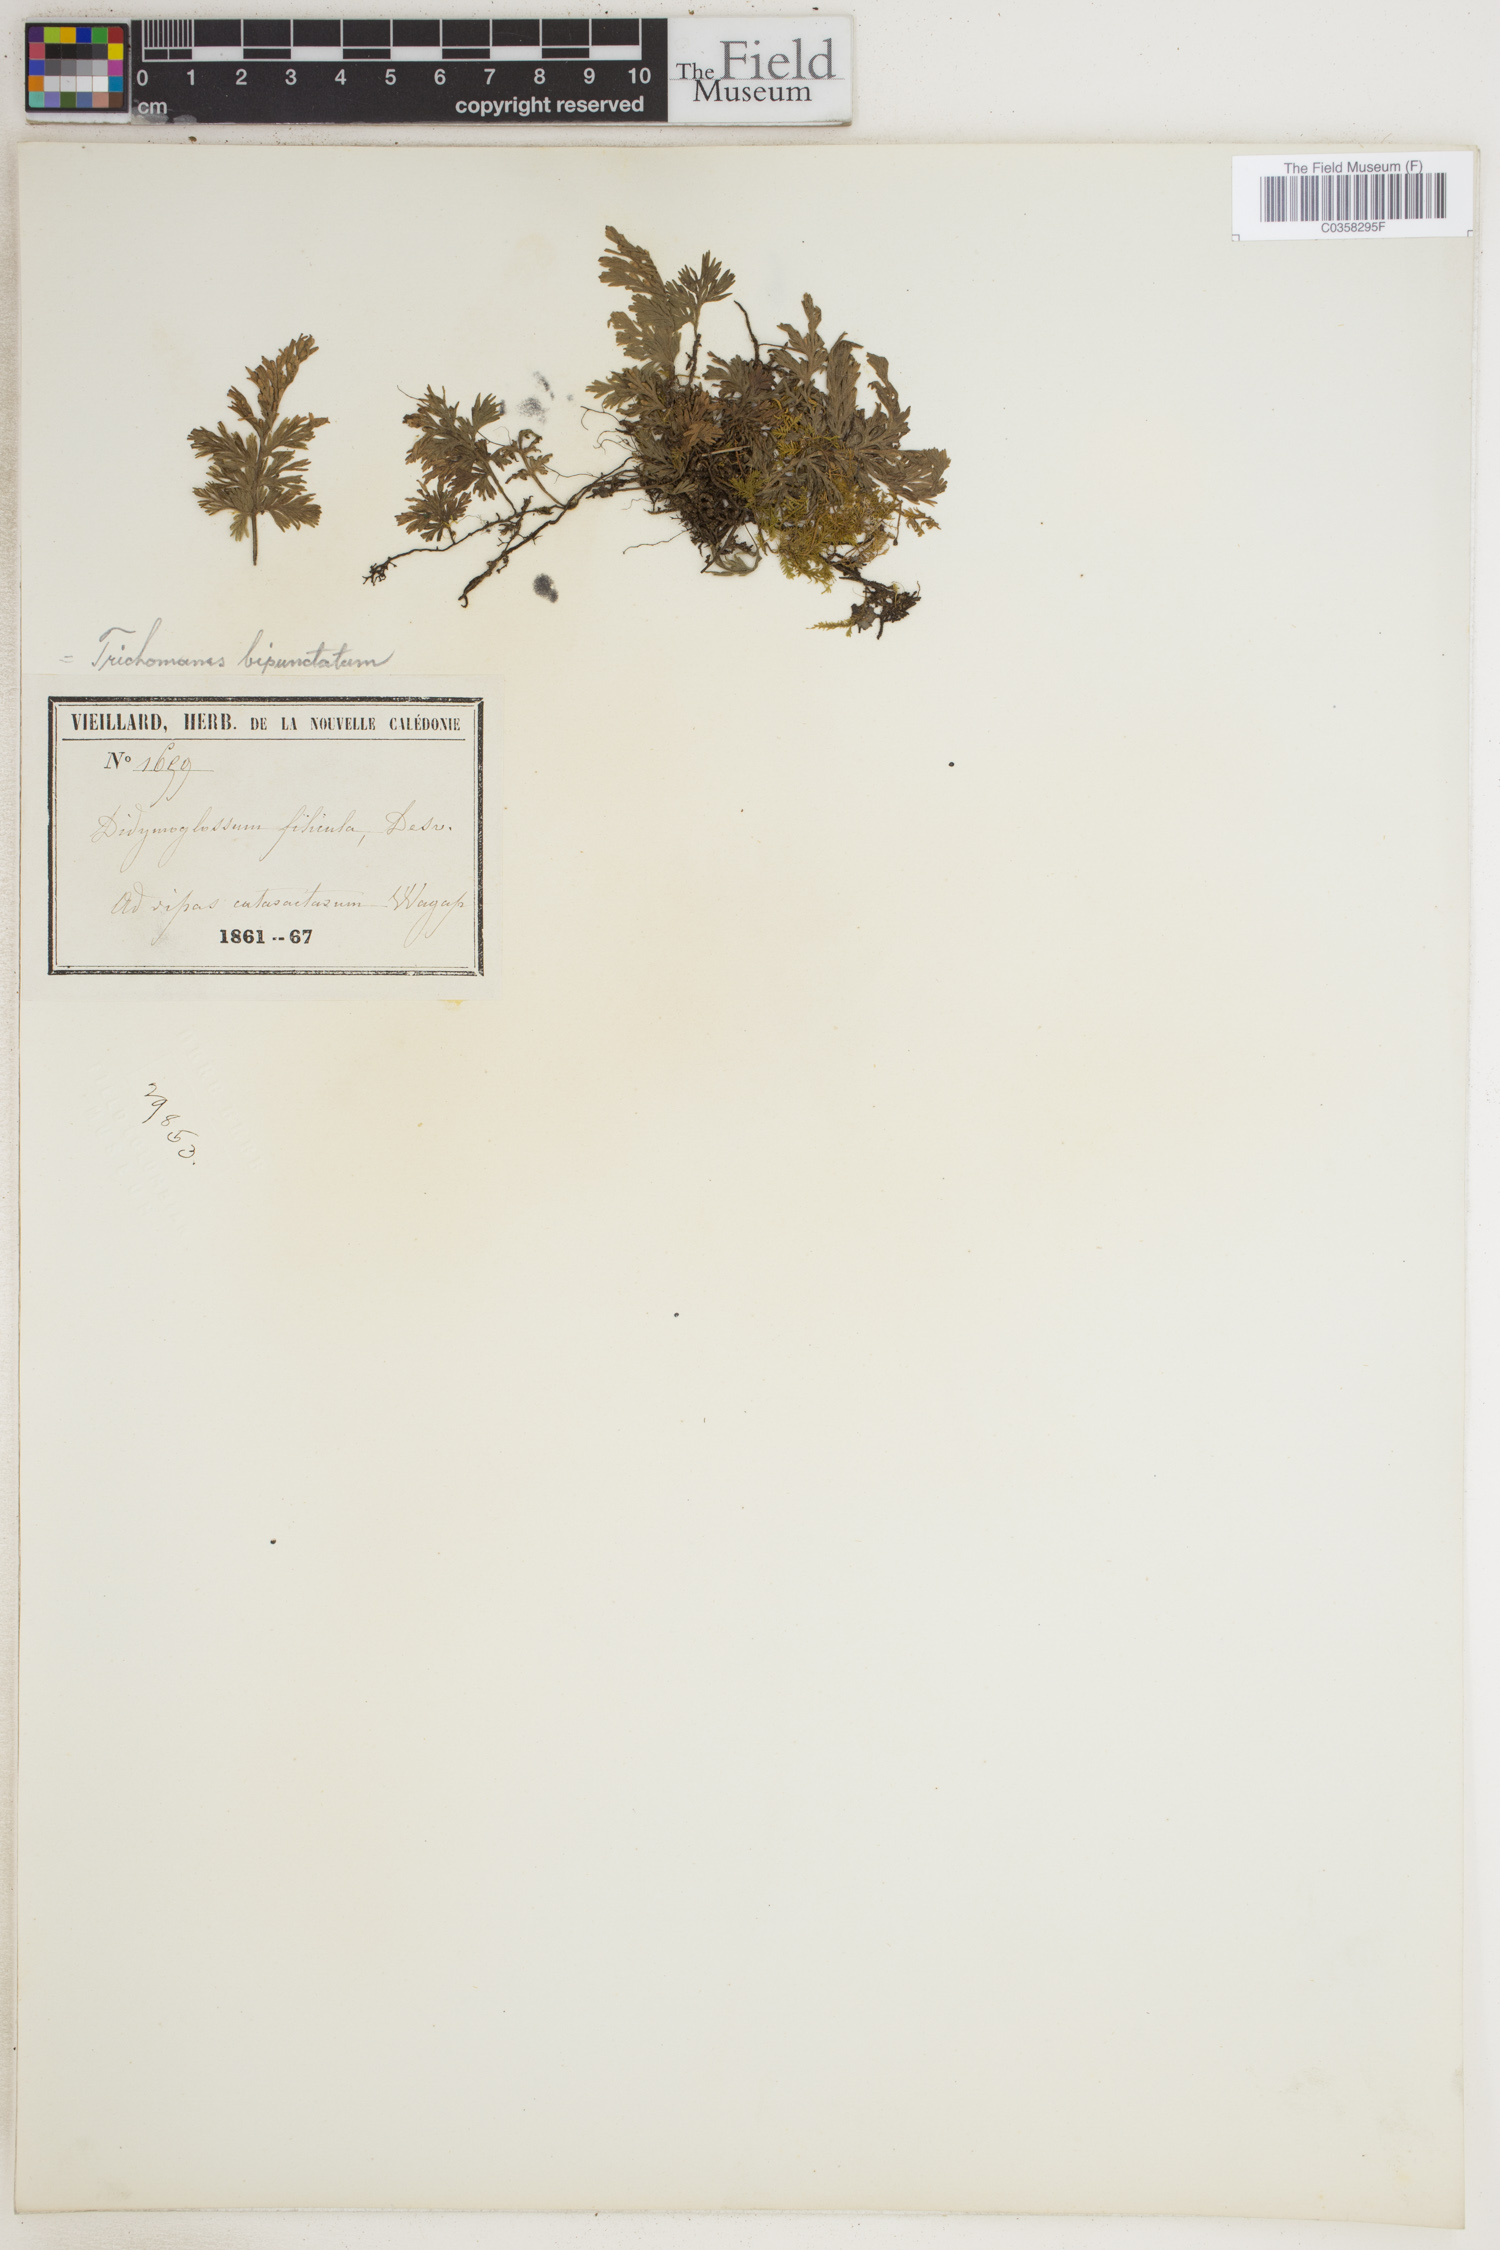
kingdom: Plantae
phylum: Tracheophyta
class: Polypodiopsida
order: Hymenophyllales
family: Hymenophyllaceae
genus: Crepidomanes
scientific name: Crepidomanes bipunctatum
